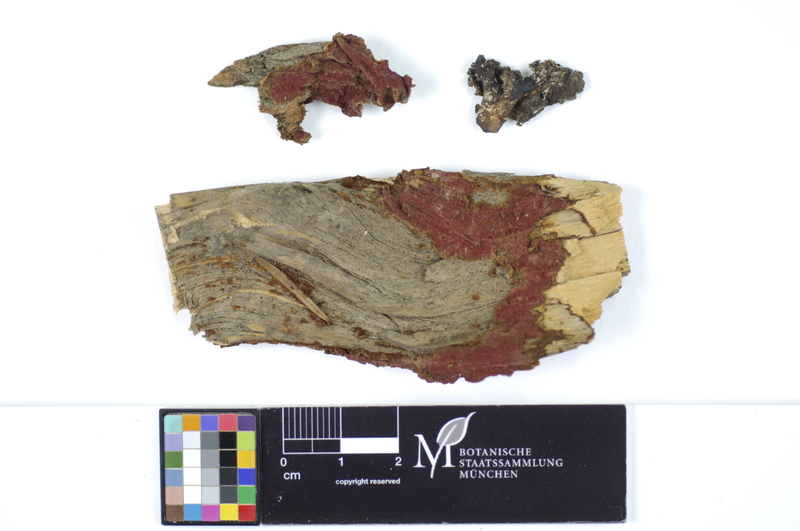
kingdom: Plantae
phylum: Tracheophyta
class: Pinopsida
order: Pinales
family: Pinaceae
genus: Abies
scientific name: Abies alba
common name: Silver fir
